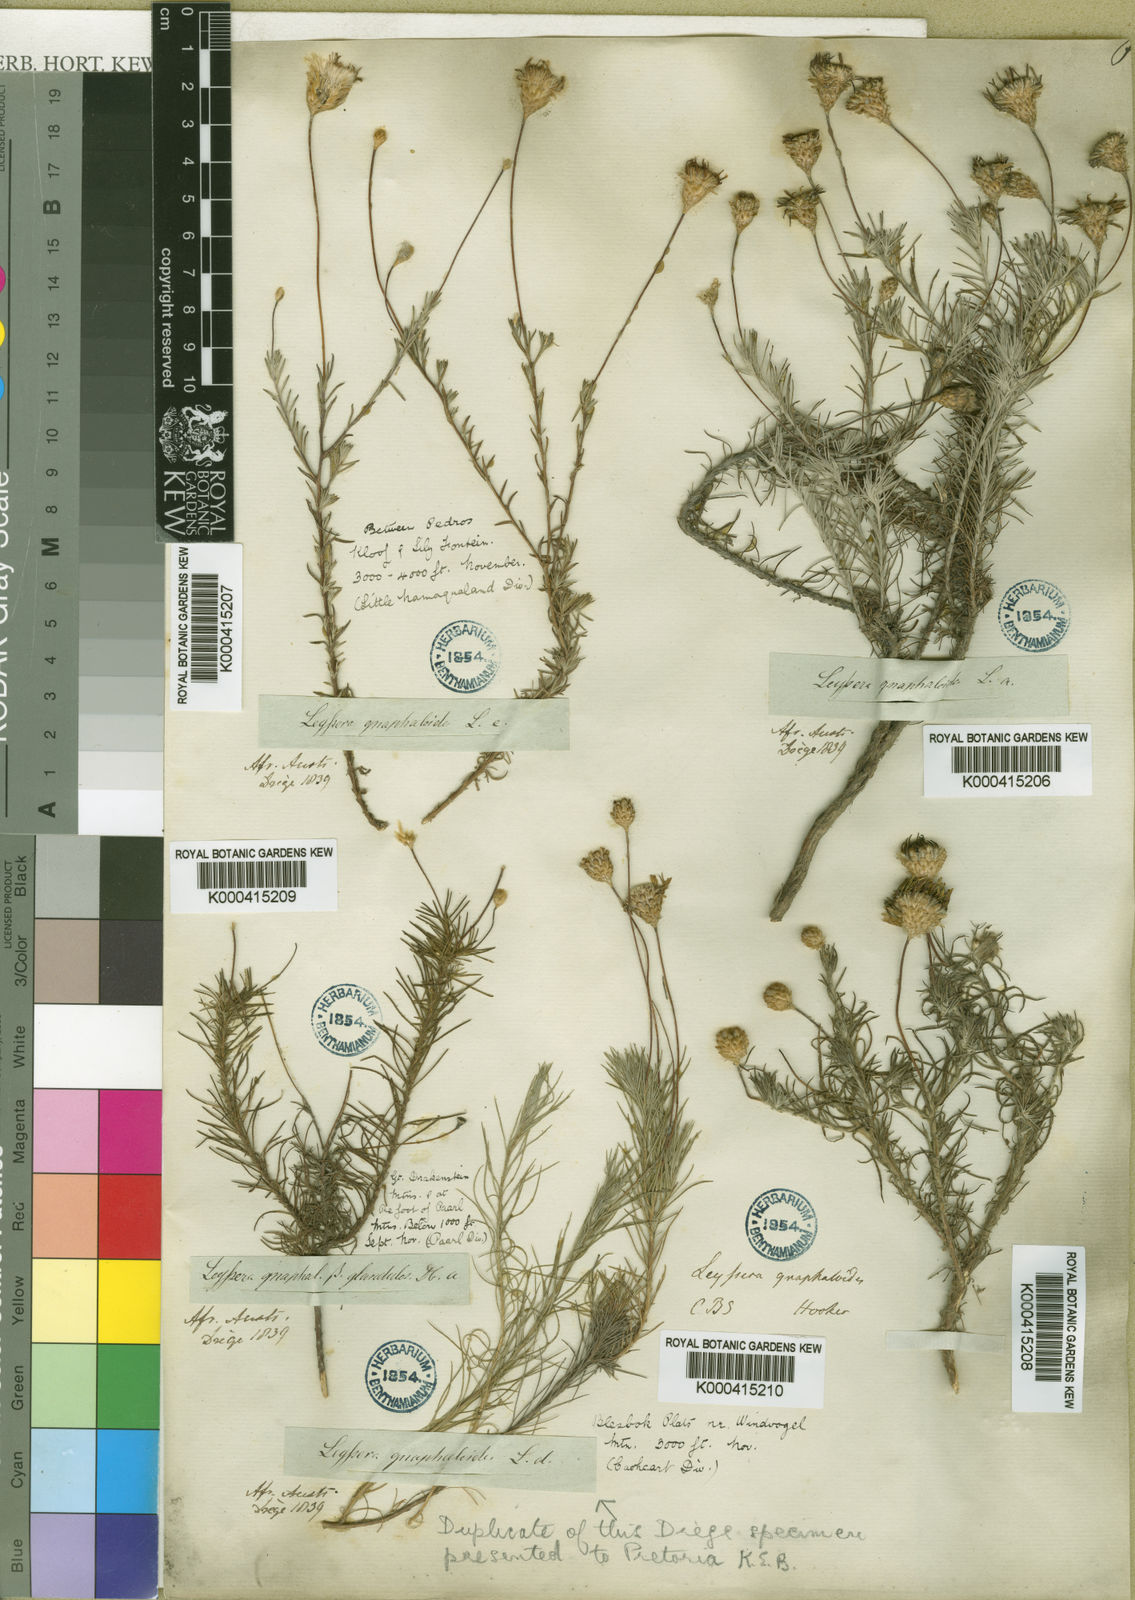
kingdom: Plantae
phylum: Tracheophyta
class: Magnoliopsida
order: Asterales
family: Asteraceae
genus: Leysera
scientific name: Leysera gnaphalodes
